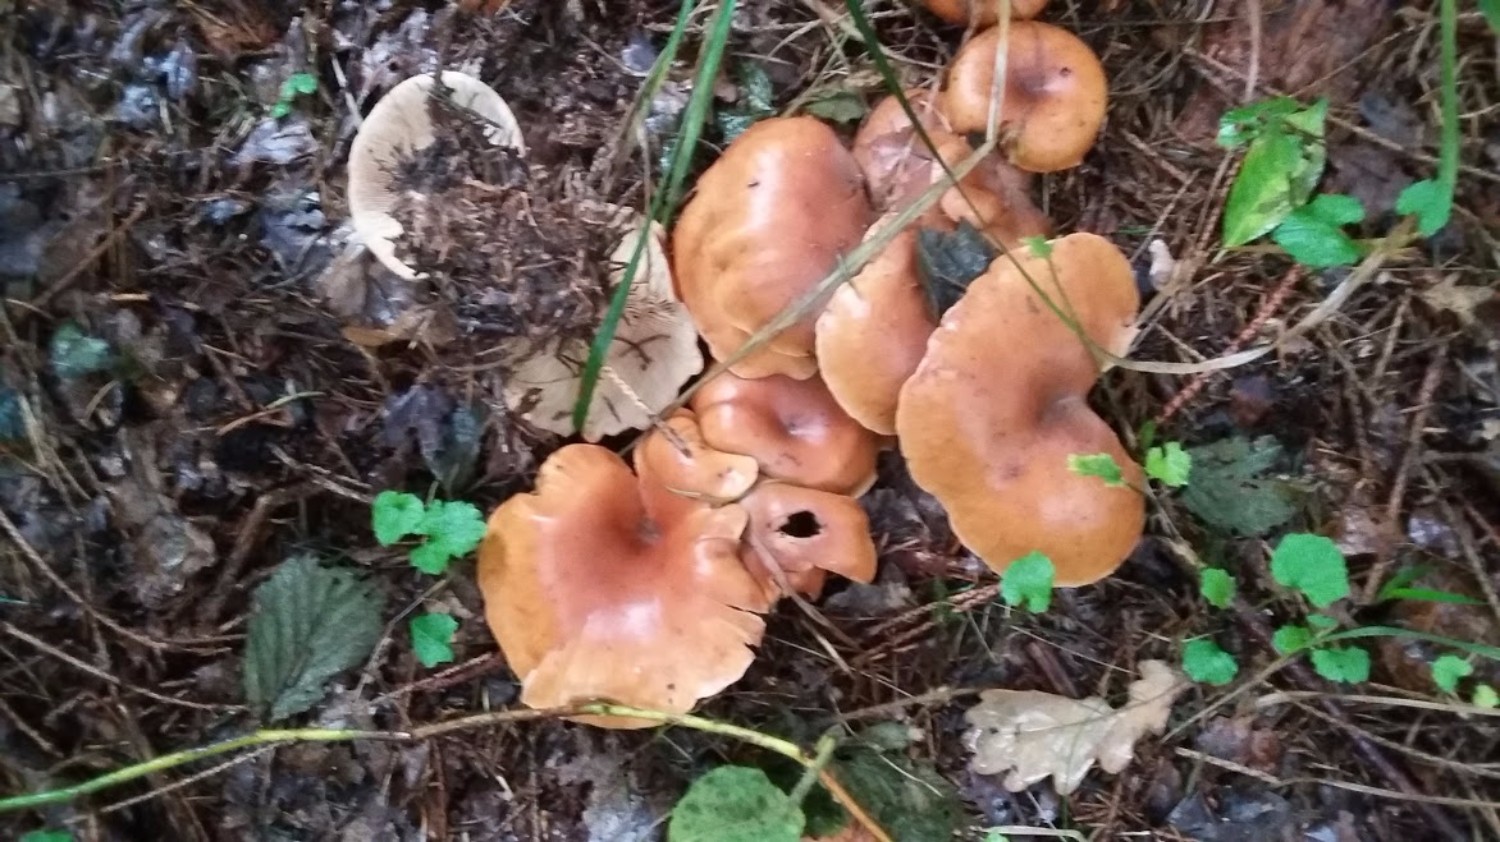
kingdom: Fungi
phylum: Basidiomycota
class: Agaricomycetes
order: Agaricales
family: Tricholomataceae
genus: Paralepista
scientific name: Paralepista flaccida
